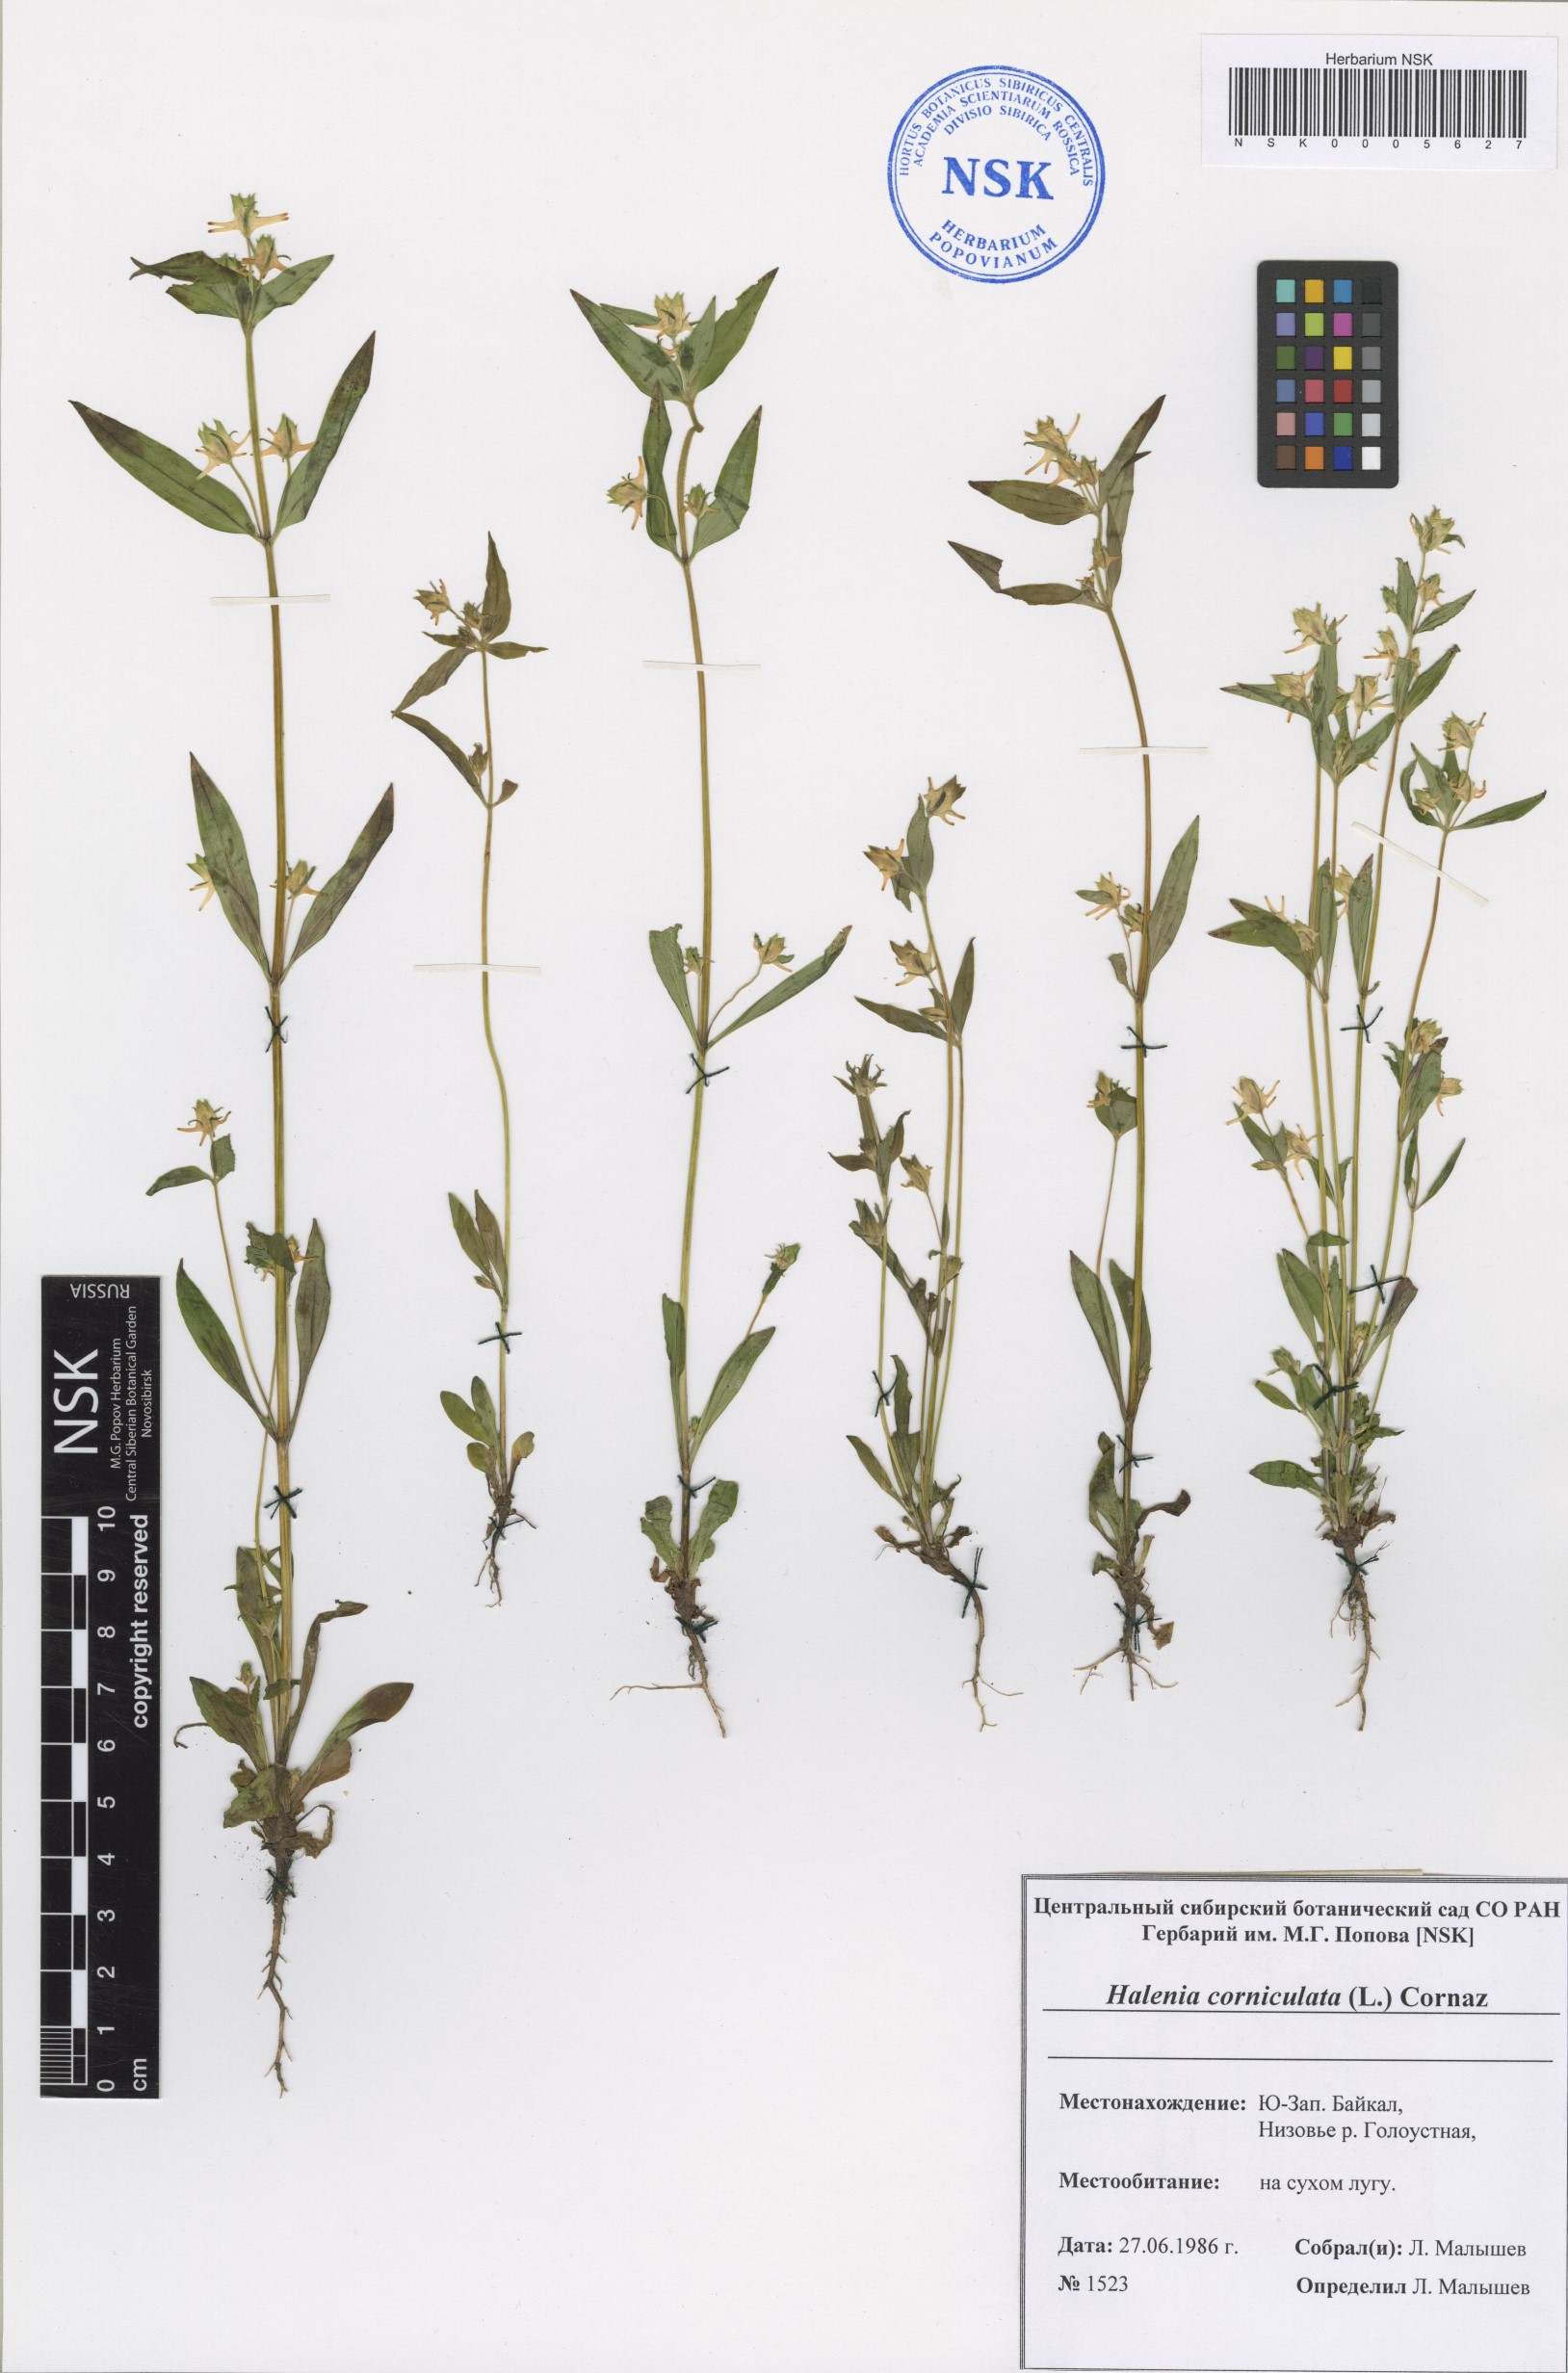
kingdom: Plantae
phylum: Tracheophyta
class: Magnoliopsida
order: Gentianales
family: Gentianaceae
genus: Halenia
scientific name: Halenia corniculata
